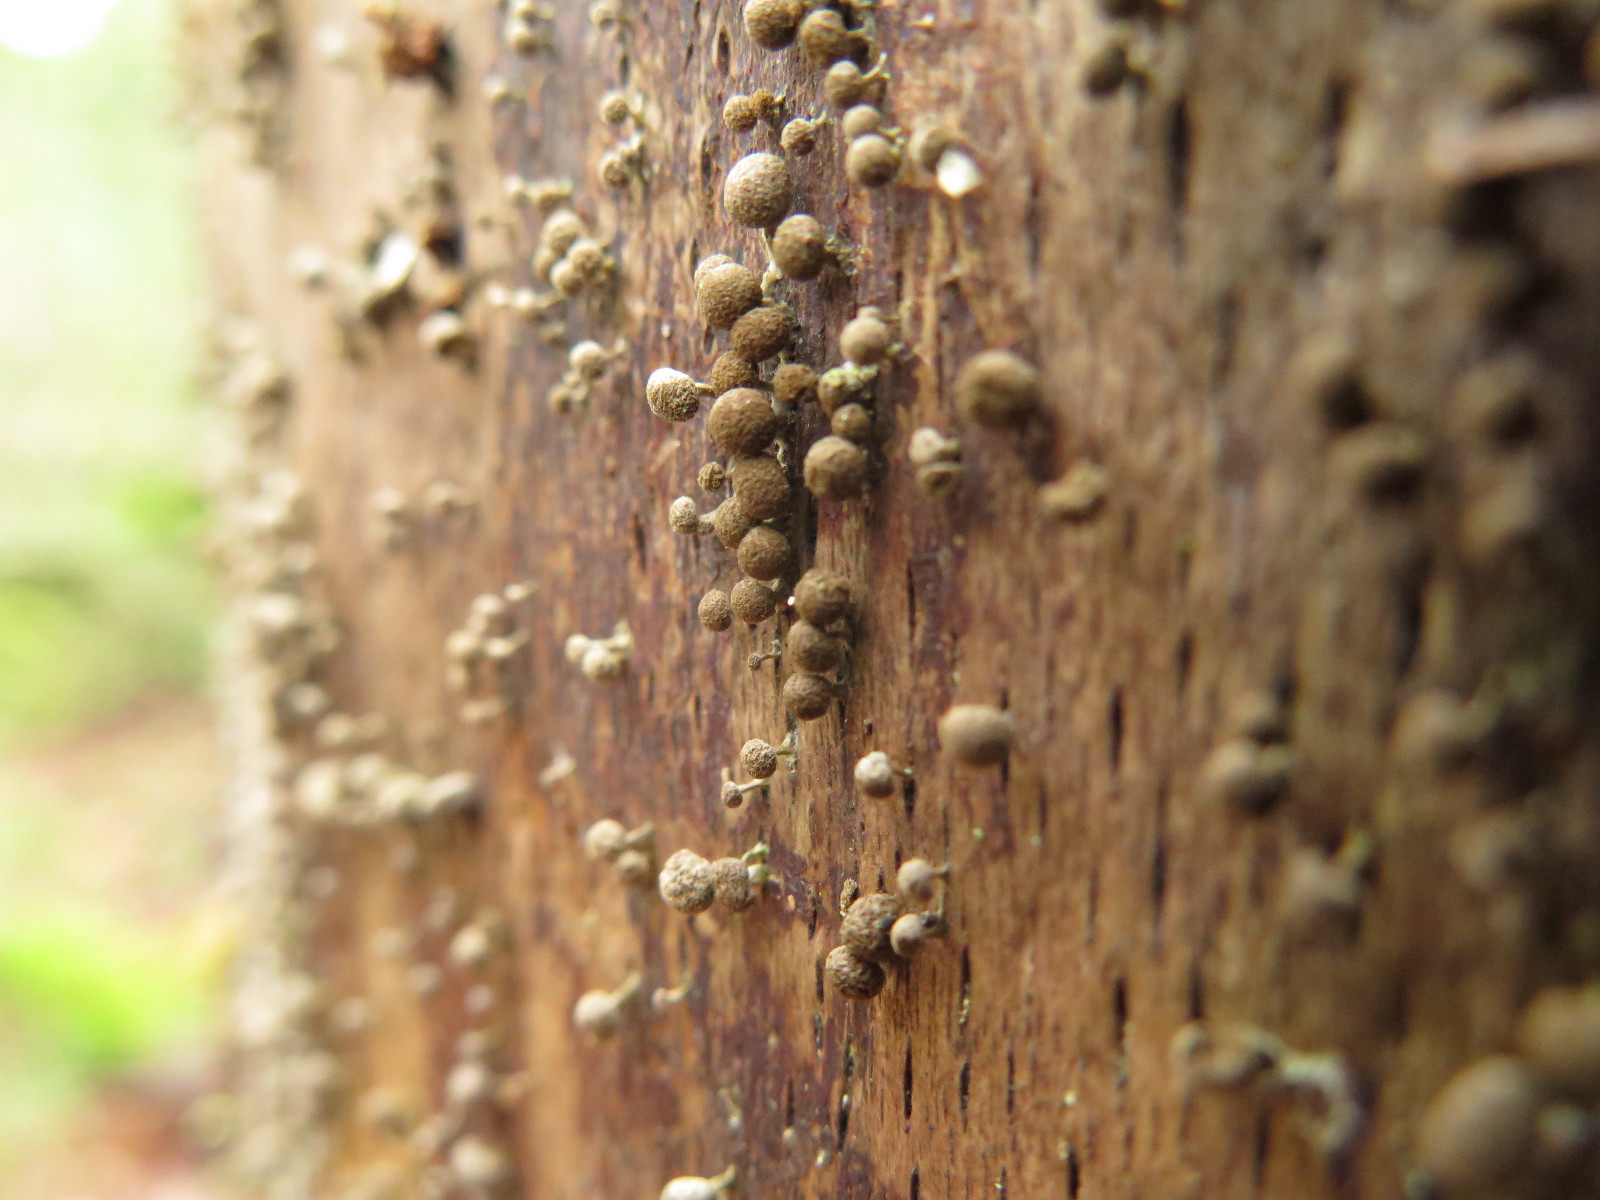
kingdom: Fungi
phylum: Basidiomycota
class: Atractiellomycetes
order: Atractiellales
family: Phleogenaceae
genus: Phleogena
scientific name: Phleogena faginea
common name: pudderkølle
